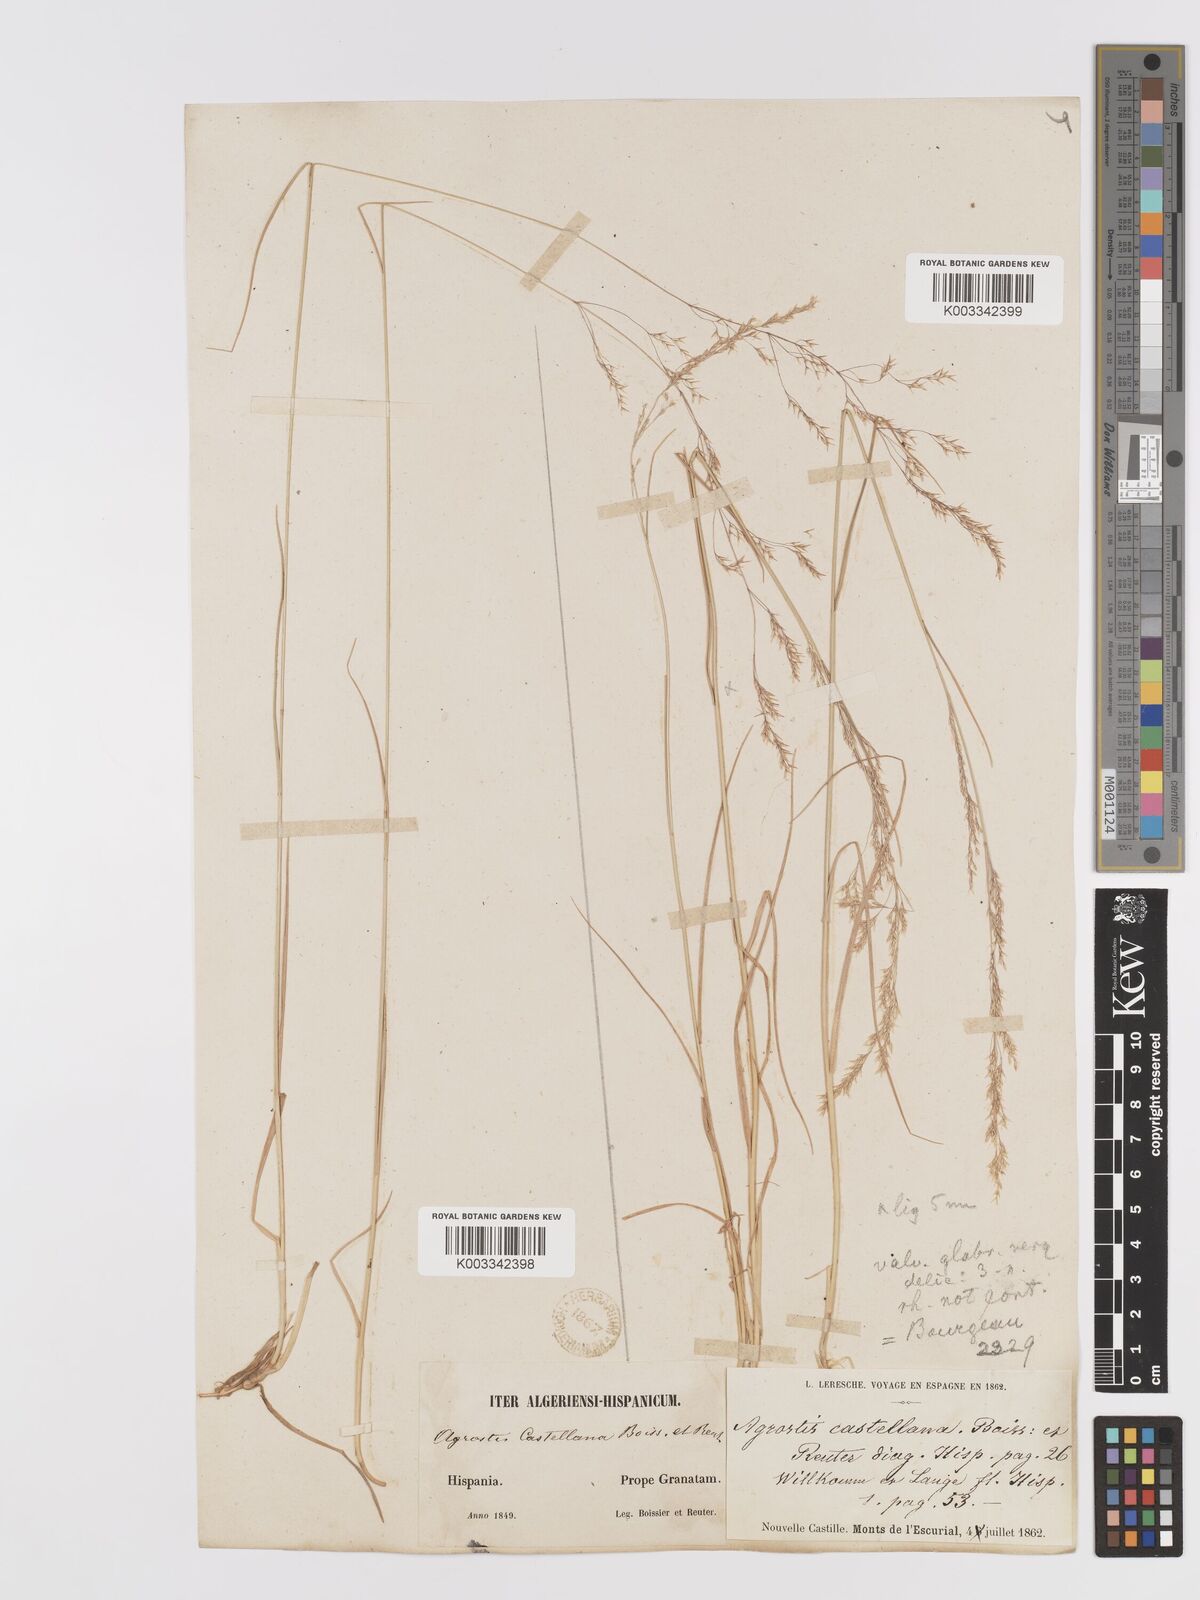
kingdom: Plantae
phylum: Tracheophyta
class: Liliopsida
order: Poales
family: Poaceae
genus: Agrostis
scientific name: Agrostis castellana
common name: Highland bent
